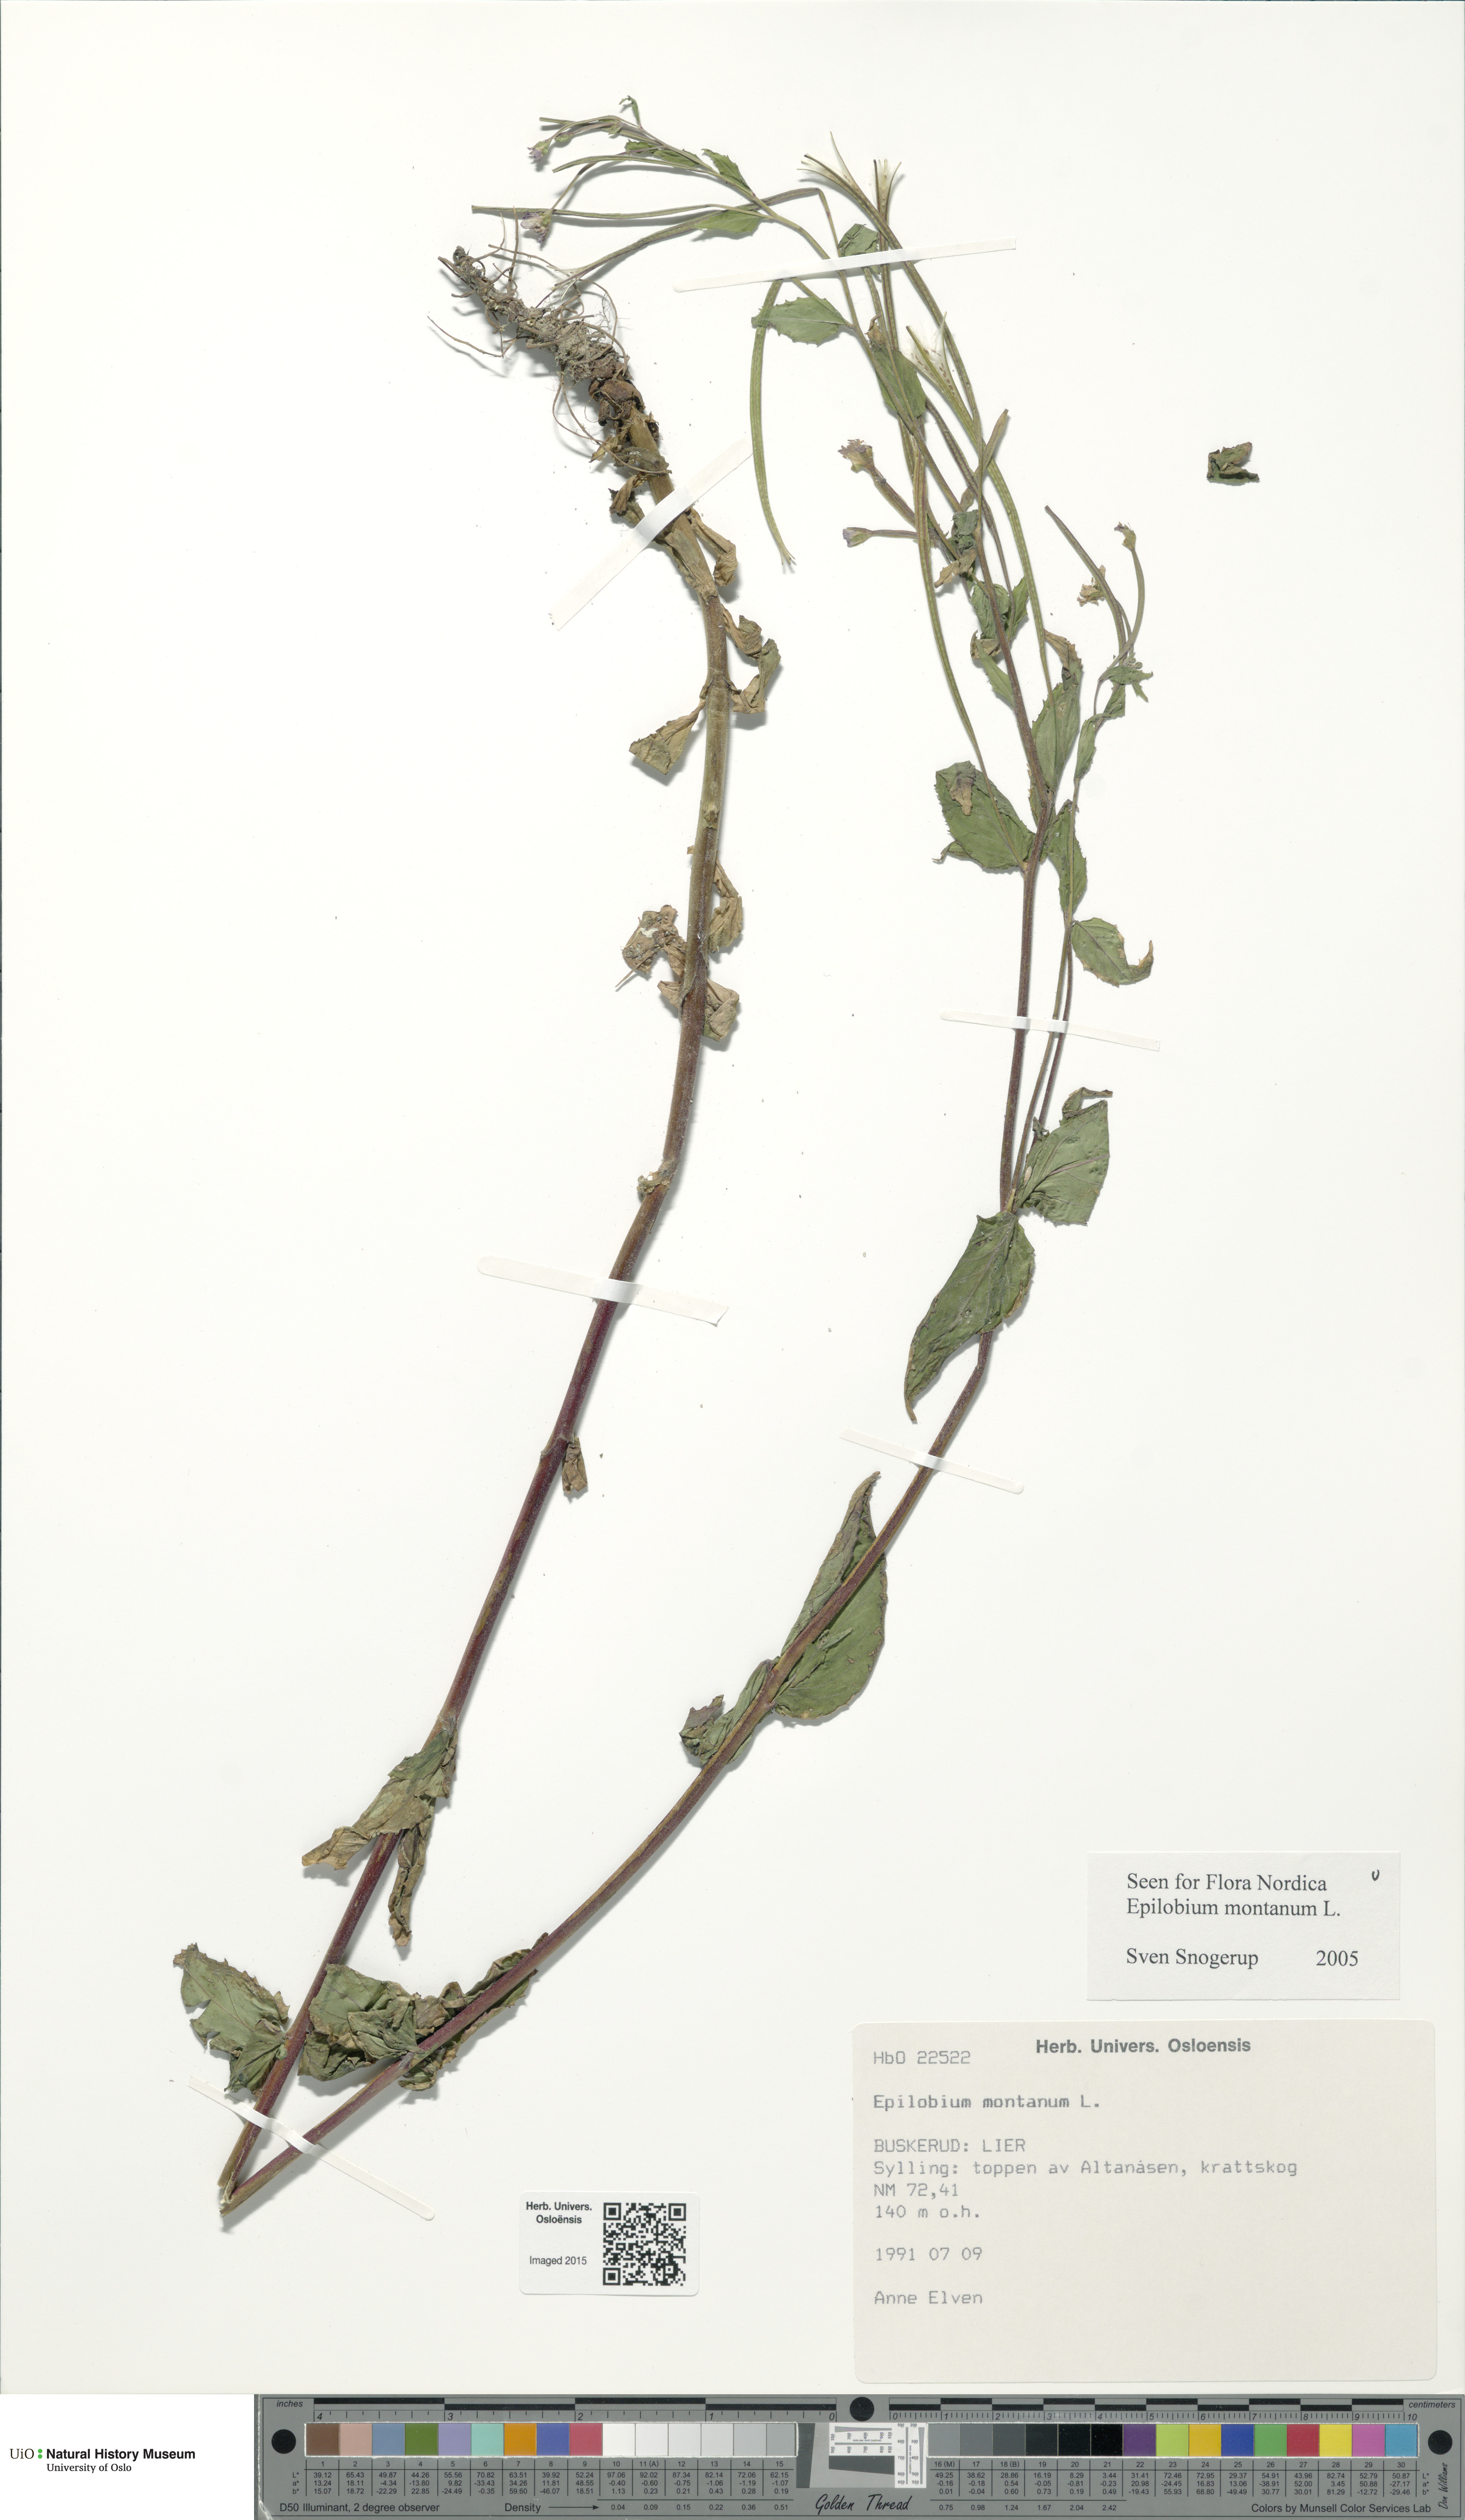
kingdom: Plantae
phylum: Tracheophyta
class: Magnoliopsida
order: Myrtales
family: Onagraceae
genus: Epilobium
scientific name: Epilobium montanum
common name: Broad-leaved willowherb
